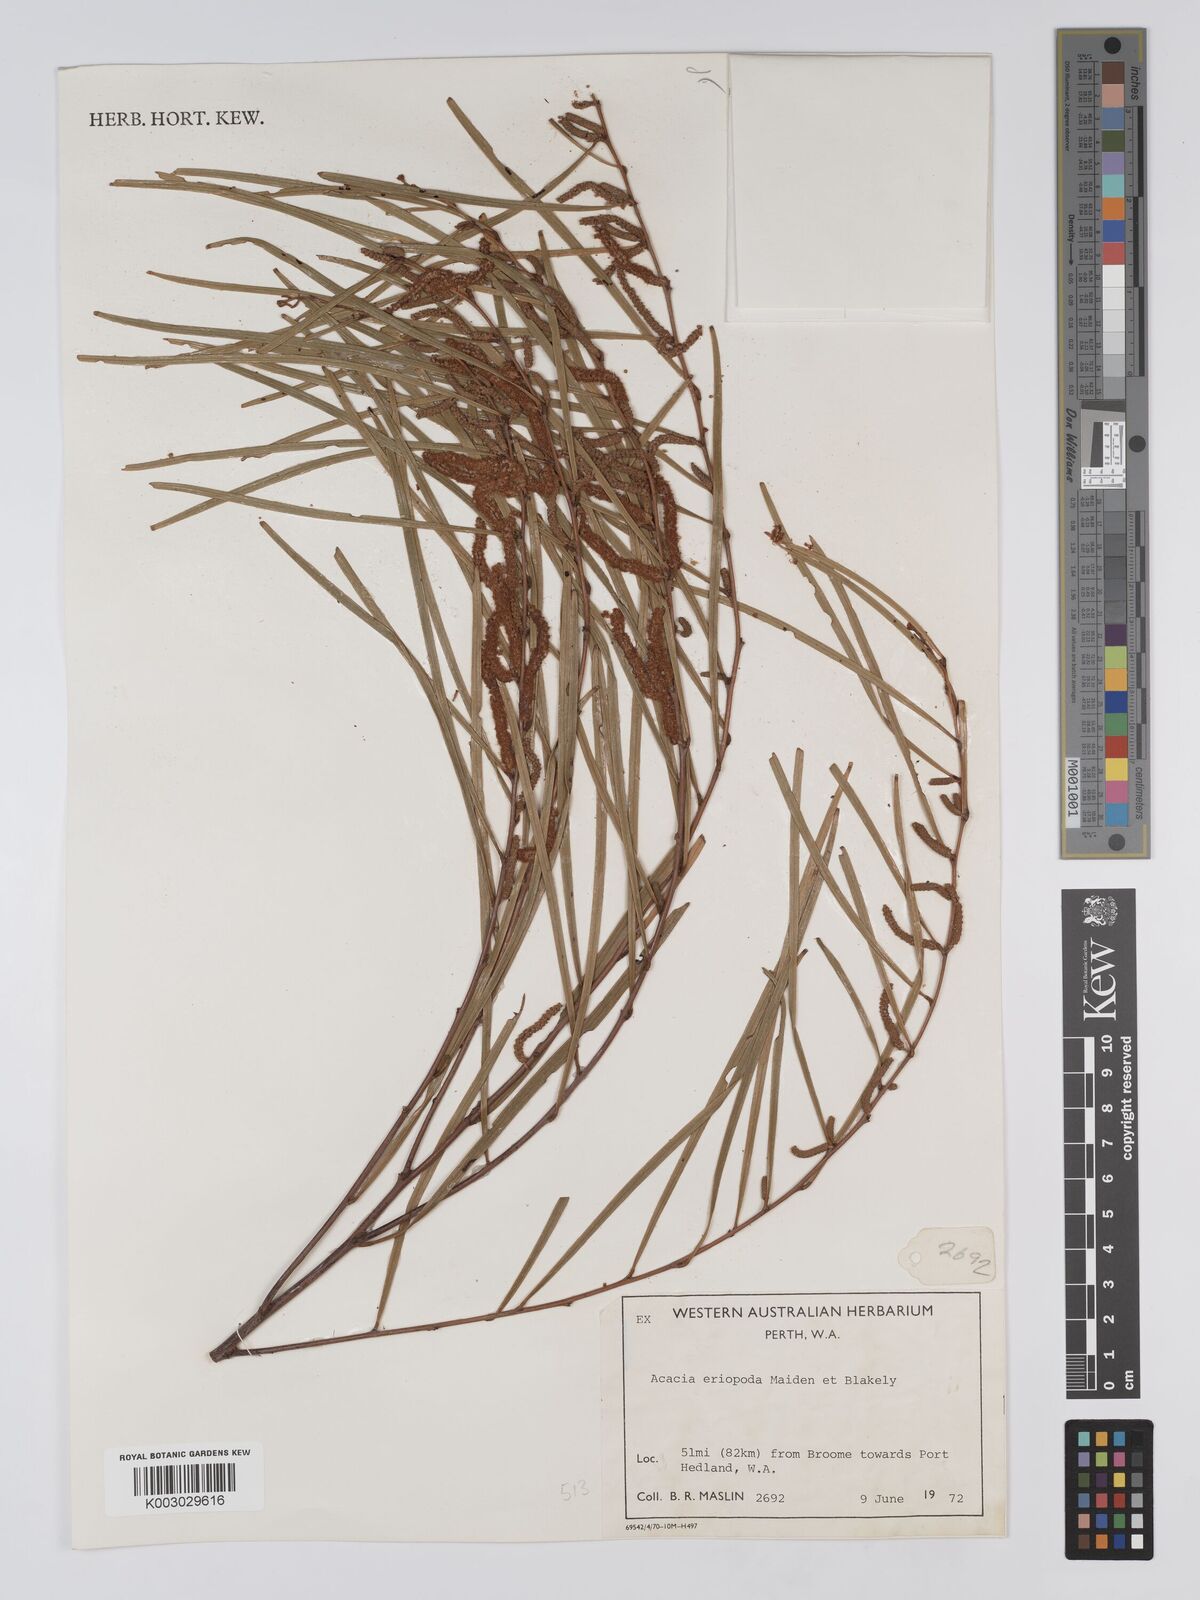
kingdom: Plantae
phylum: Tracheophyta
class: Magnoliopsida
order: Fabales
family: Fabaceae
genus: Acacia
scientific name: Acacia eriopoda
